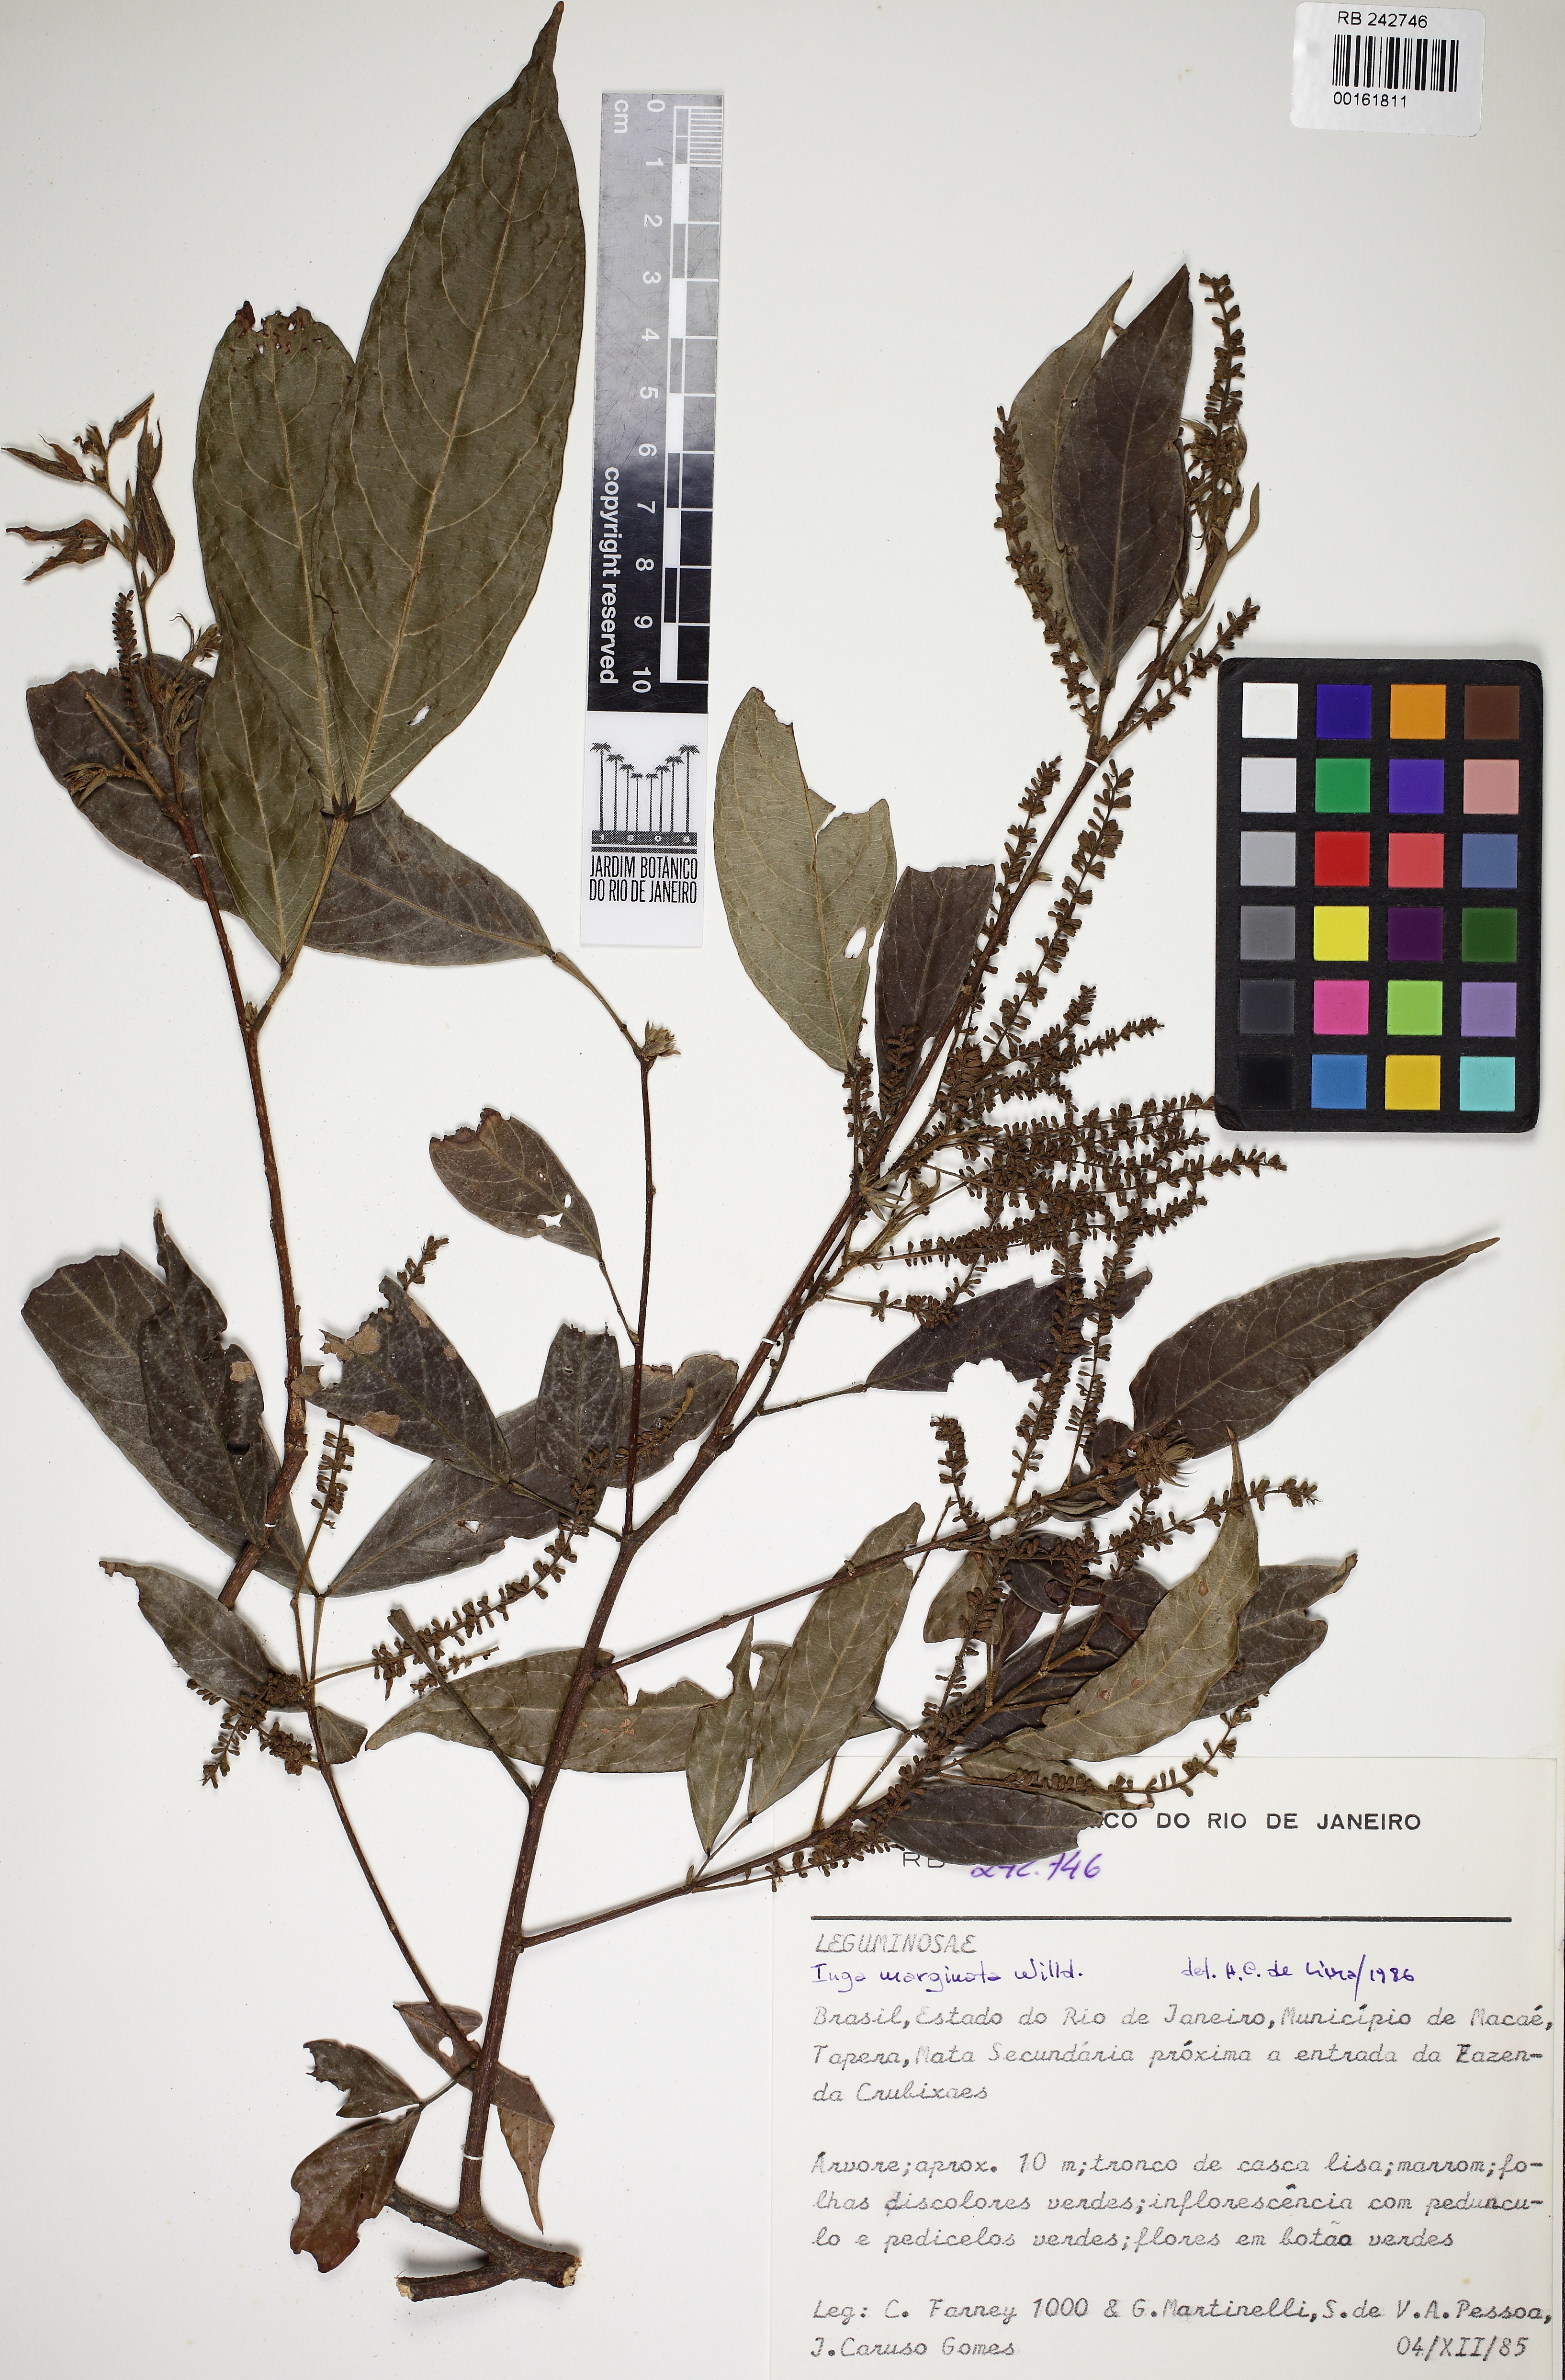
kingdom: Plantae
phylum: Tracheophyta
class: Magnoliopsida
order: Fabales
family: Fabaceae
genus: Inga
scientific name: Inga marginata
